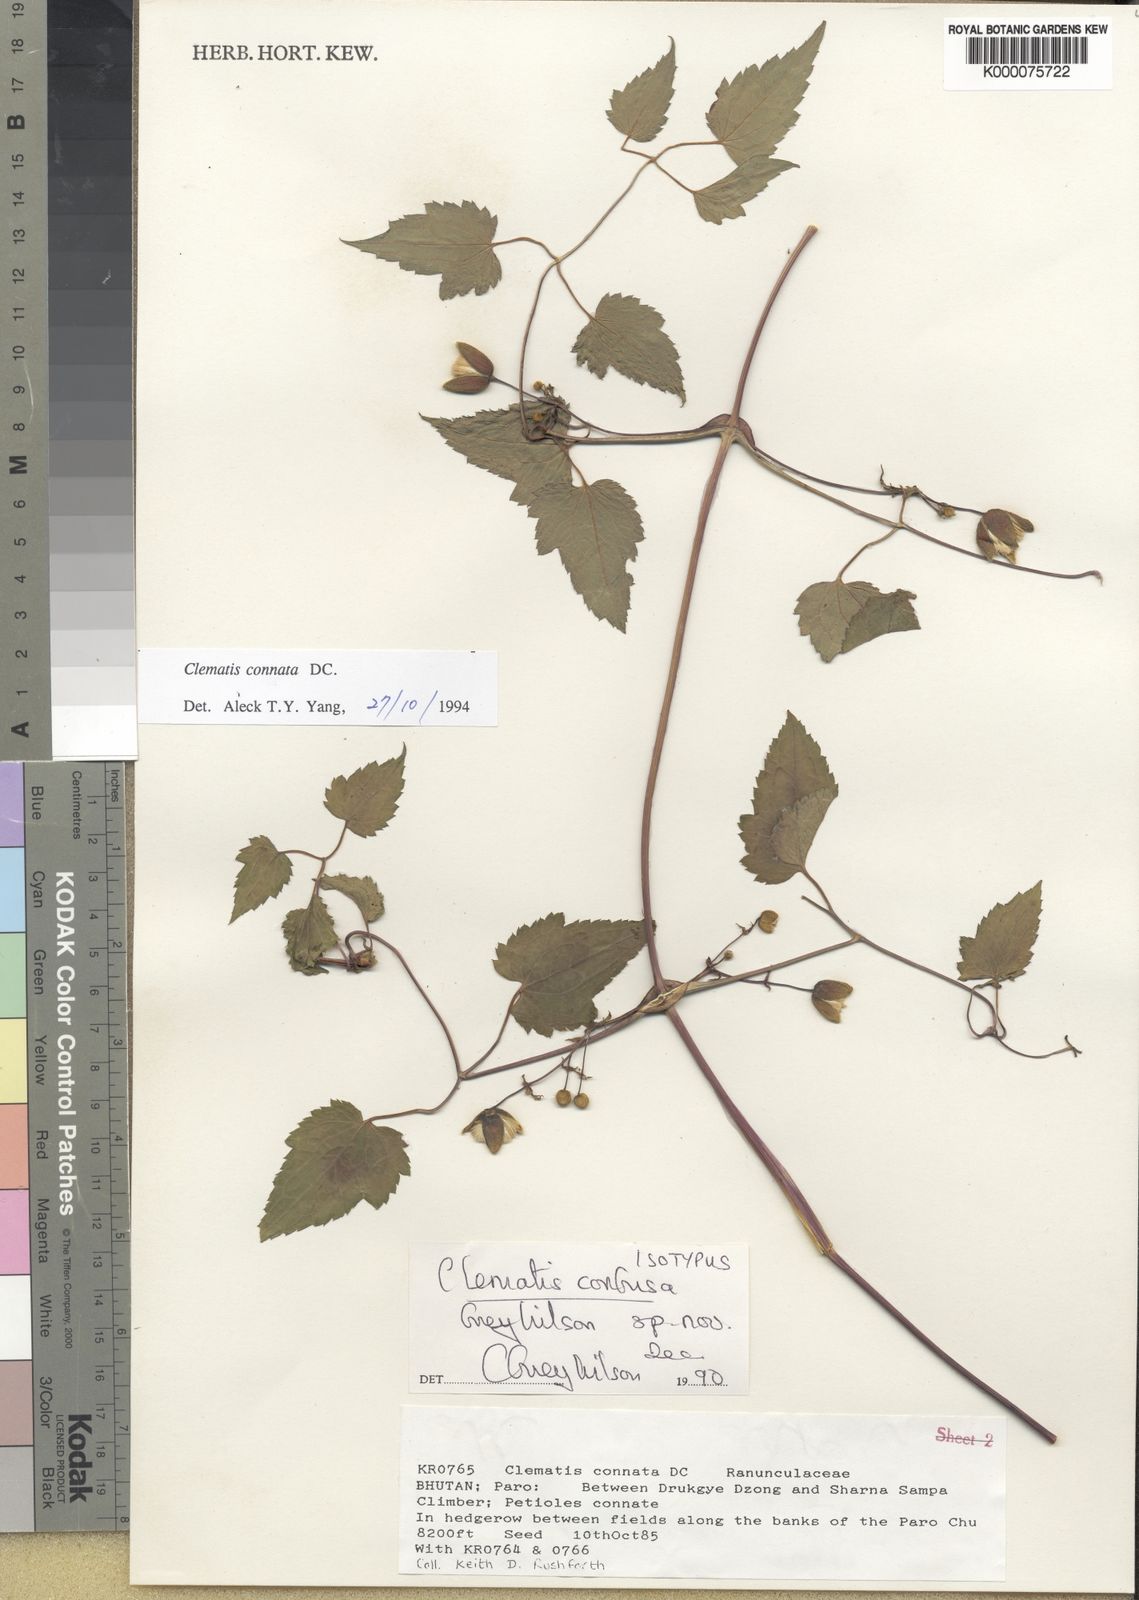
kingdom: Plantae
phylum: Tracheophyta
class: Magnoliopsida
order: Ranunculales
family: Ranunculaceae
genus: Clematis
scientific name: Clematis confusa
